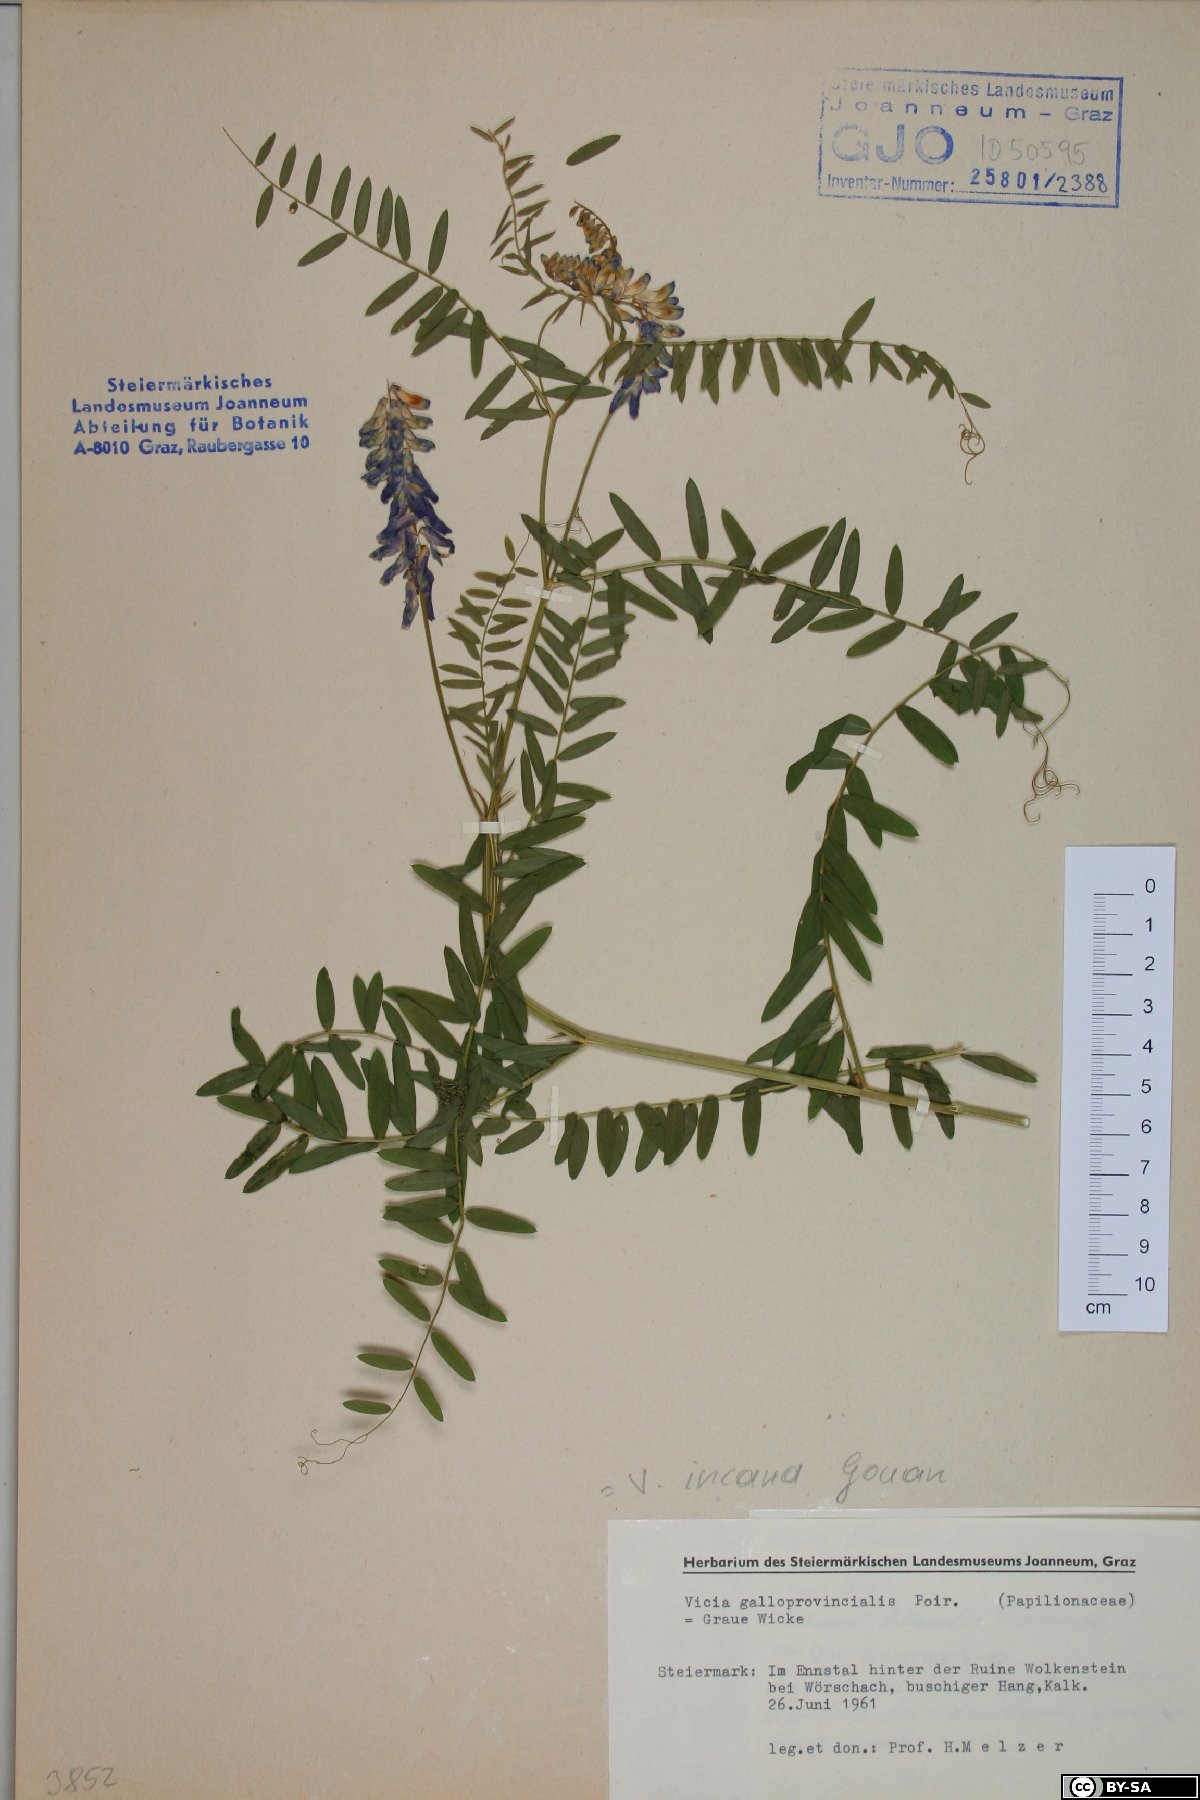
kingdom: Plantae
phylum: Tracheophyta
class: Magnoliopsida
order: Fabales
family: Fabaceae
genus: Vicia
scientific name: Vicia incana
